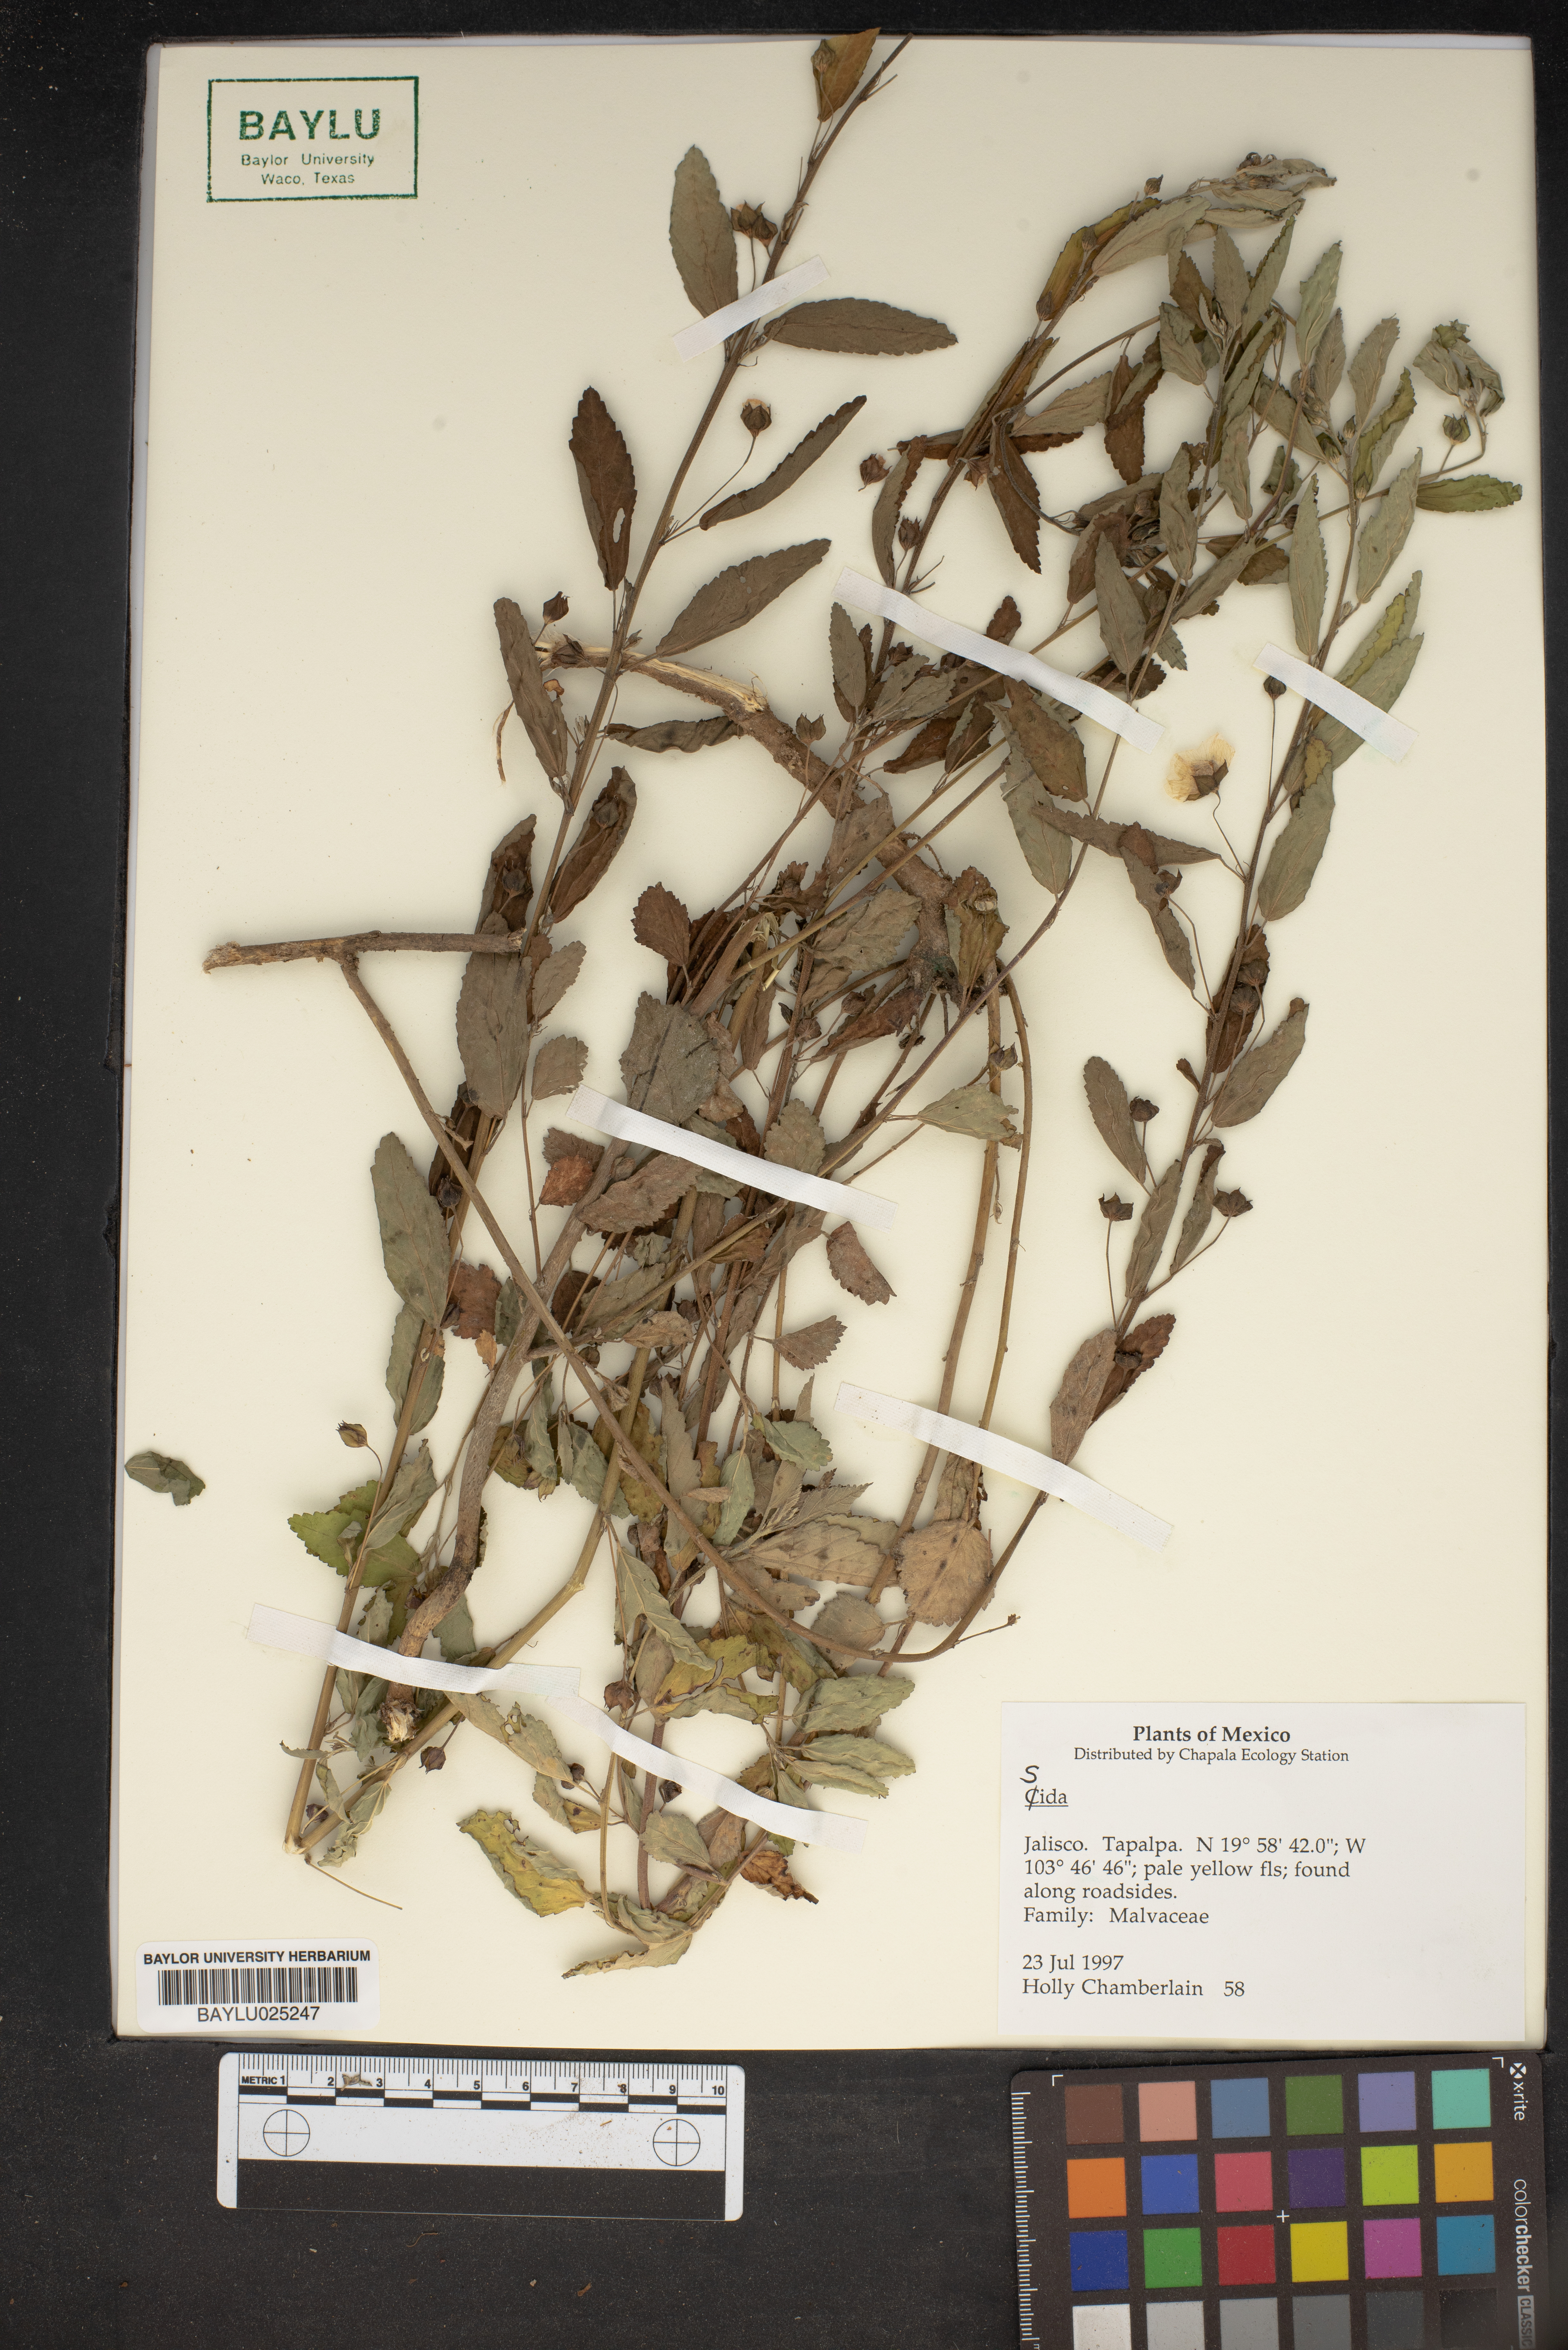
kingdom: Plantae
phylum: Tracheophyta
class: Magnoliopsida
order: Malvales
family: Malvaceae
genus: Sida
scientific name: Sida
